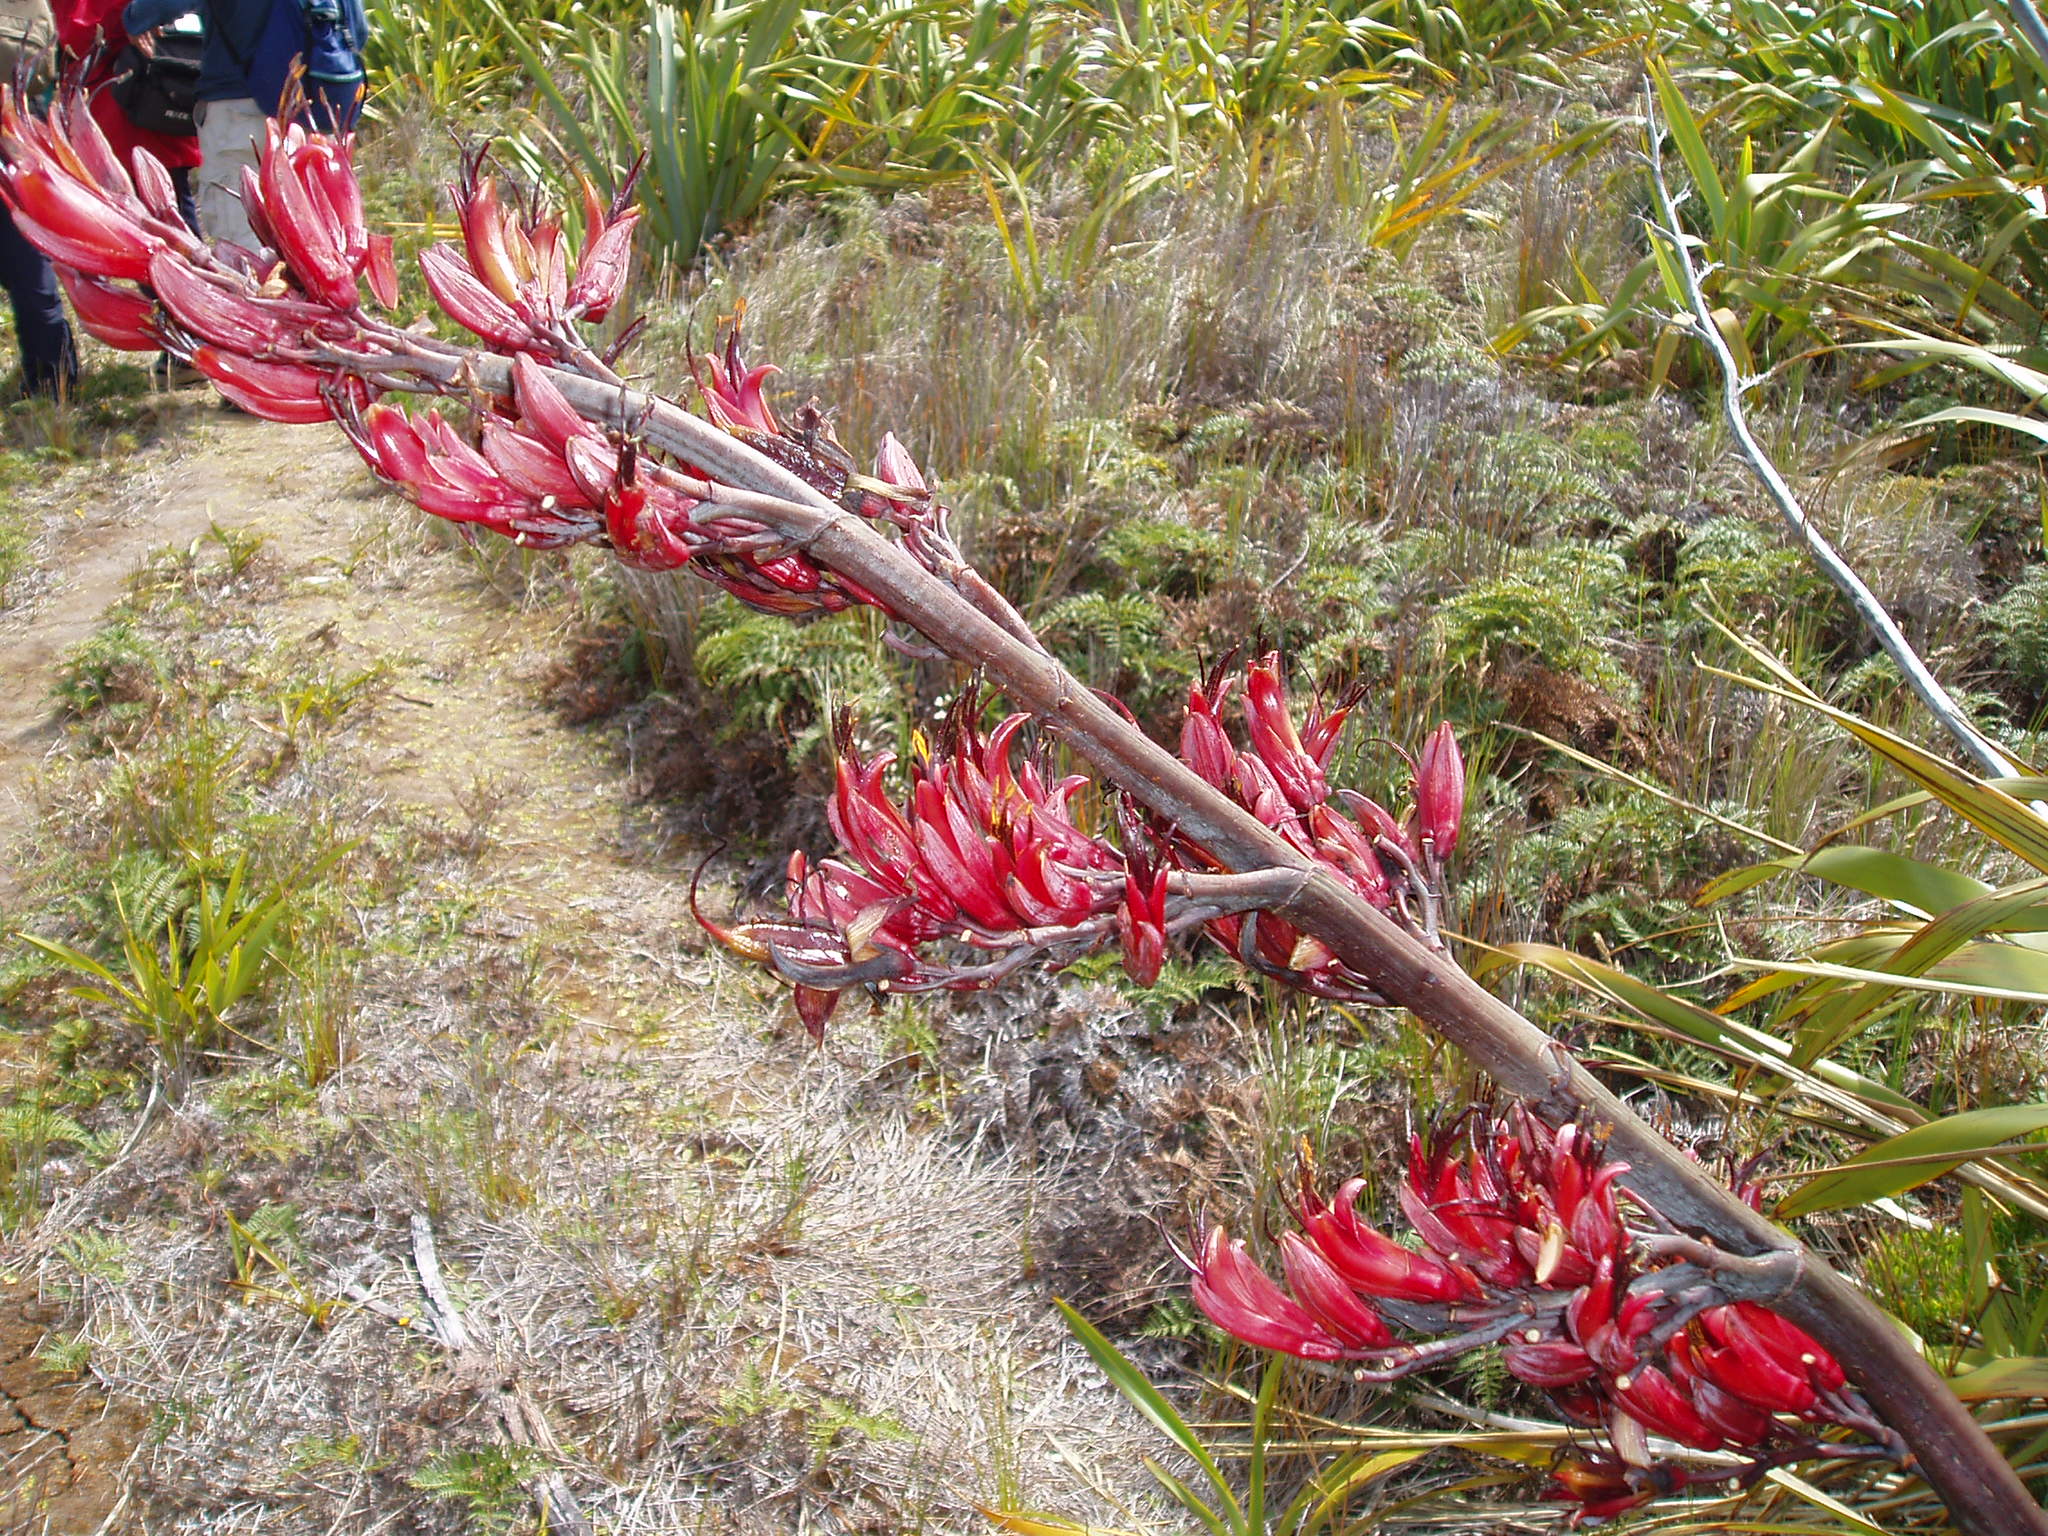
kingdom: Plantae
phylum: Tracheophyta
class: Liliopsida
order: Asparagales
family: Asphodelaceae
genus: Phormium
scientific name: Phormium tenax
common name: New zealand flax
